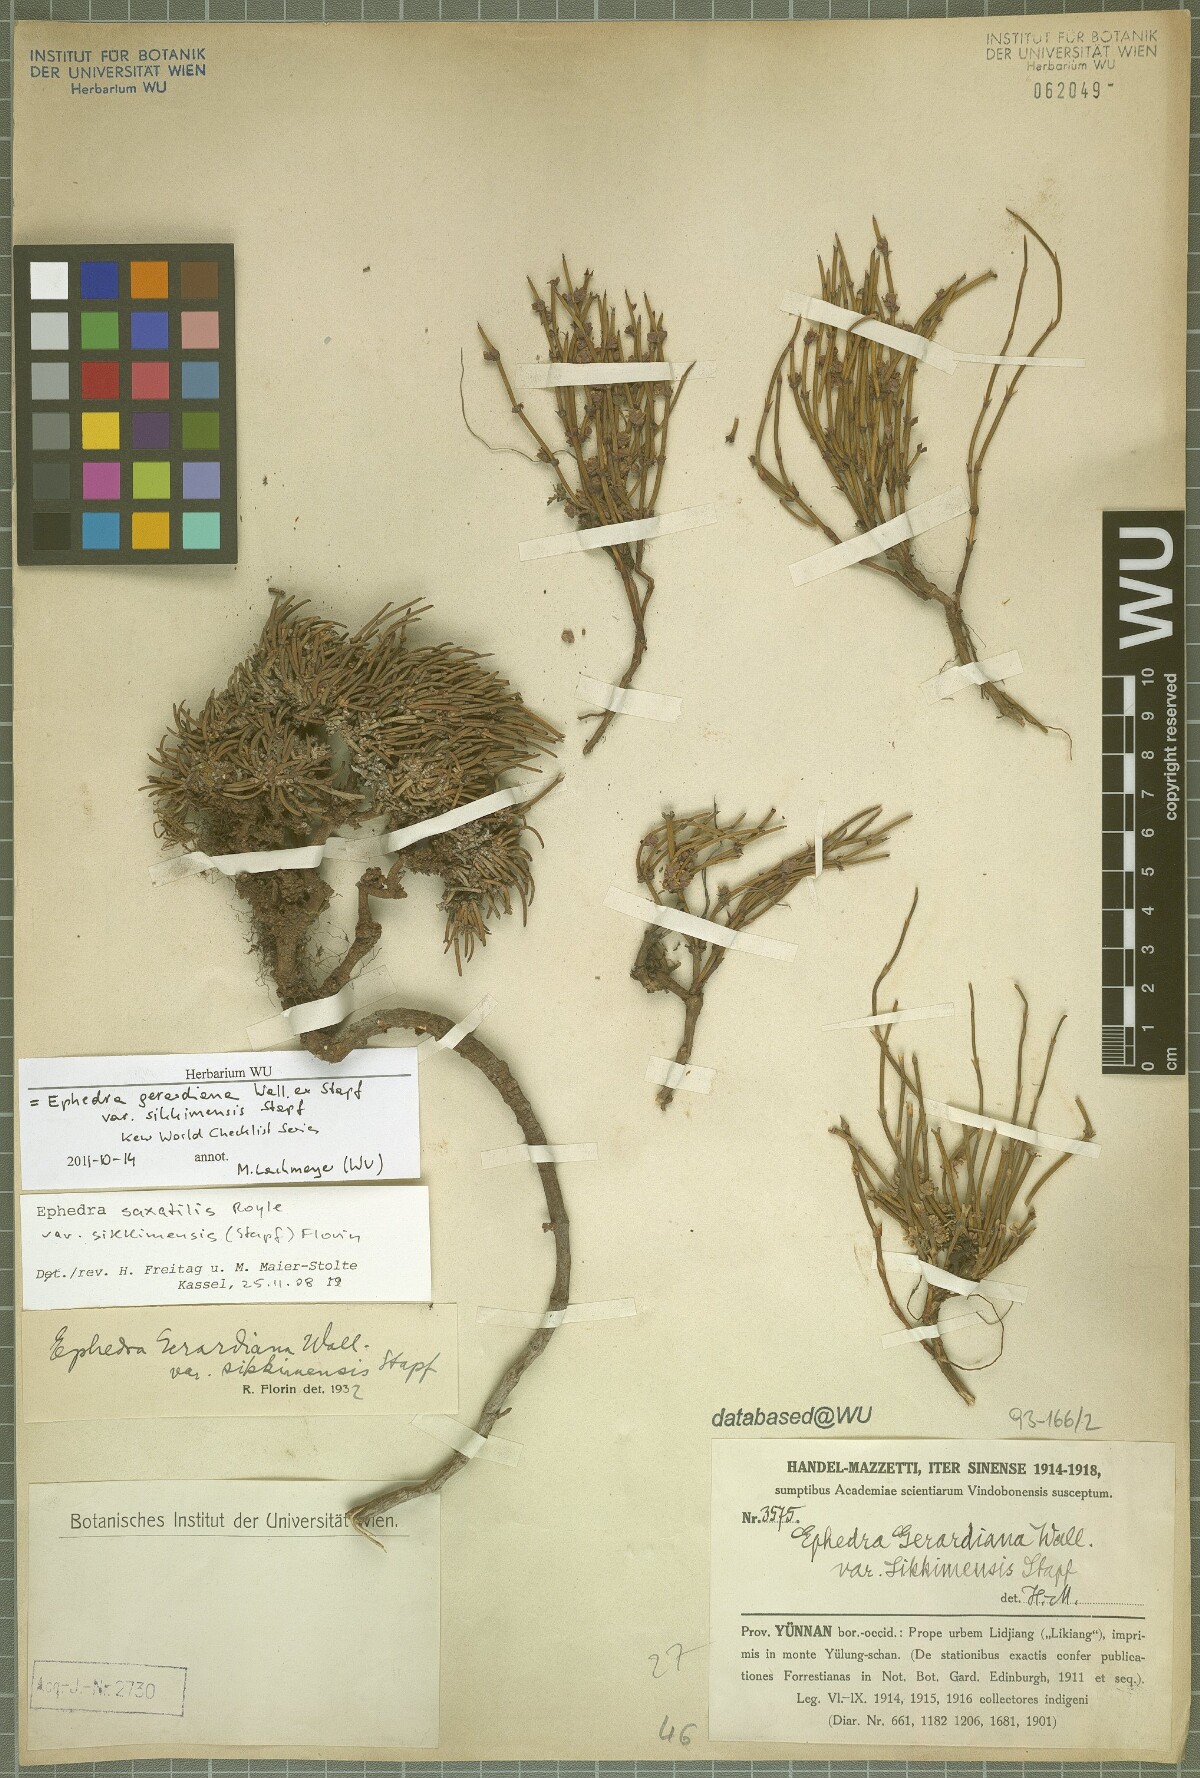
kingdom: Plantae
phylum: Tracheophyta
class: Gnetopsida
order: Ephedrales
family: Ephedraceae
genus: Ephedra
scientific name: Ephedra saxatilis
